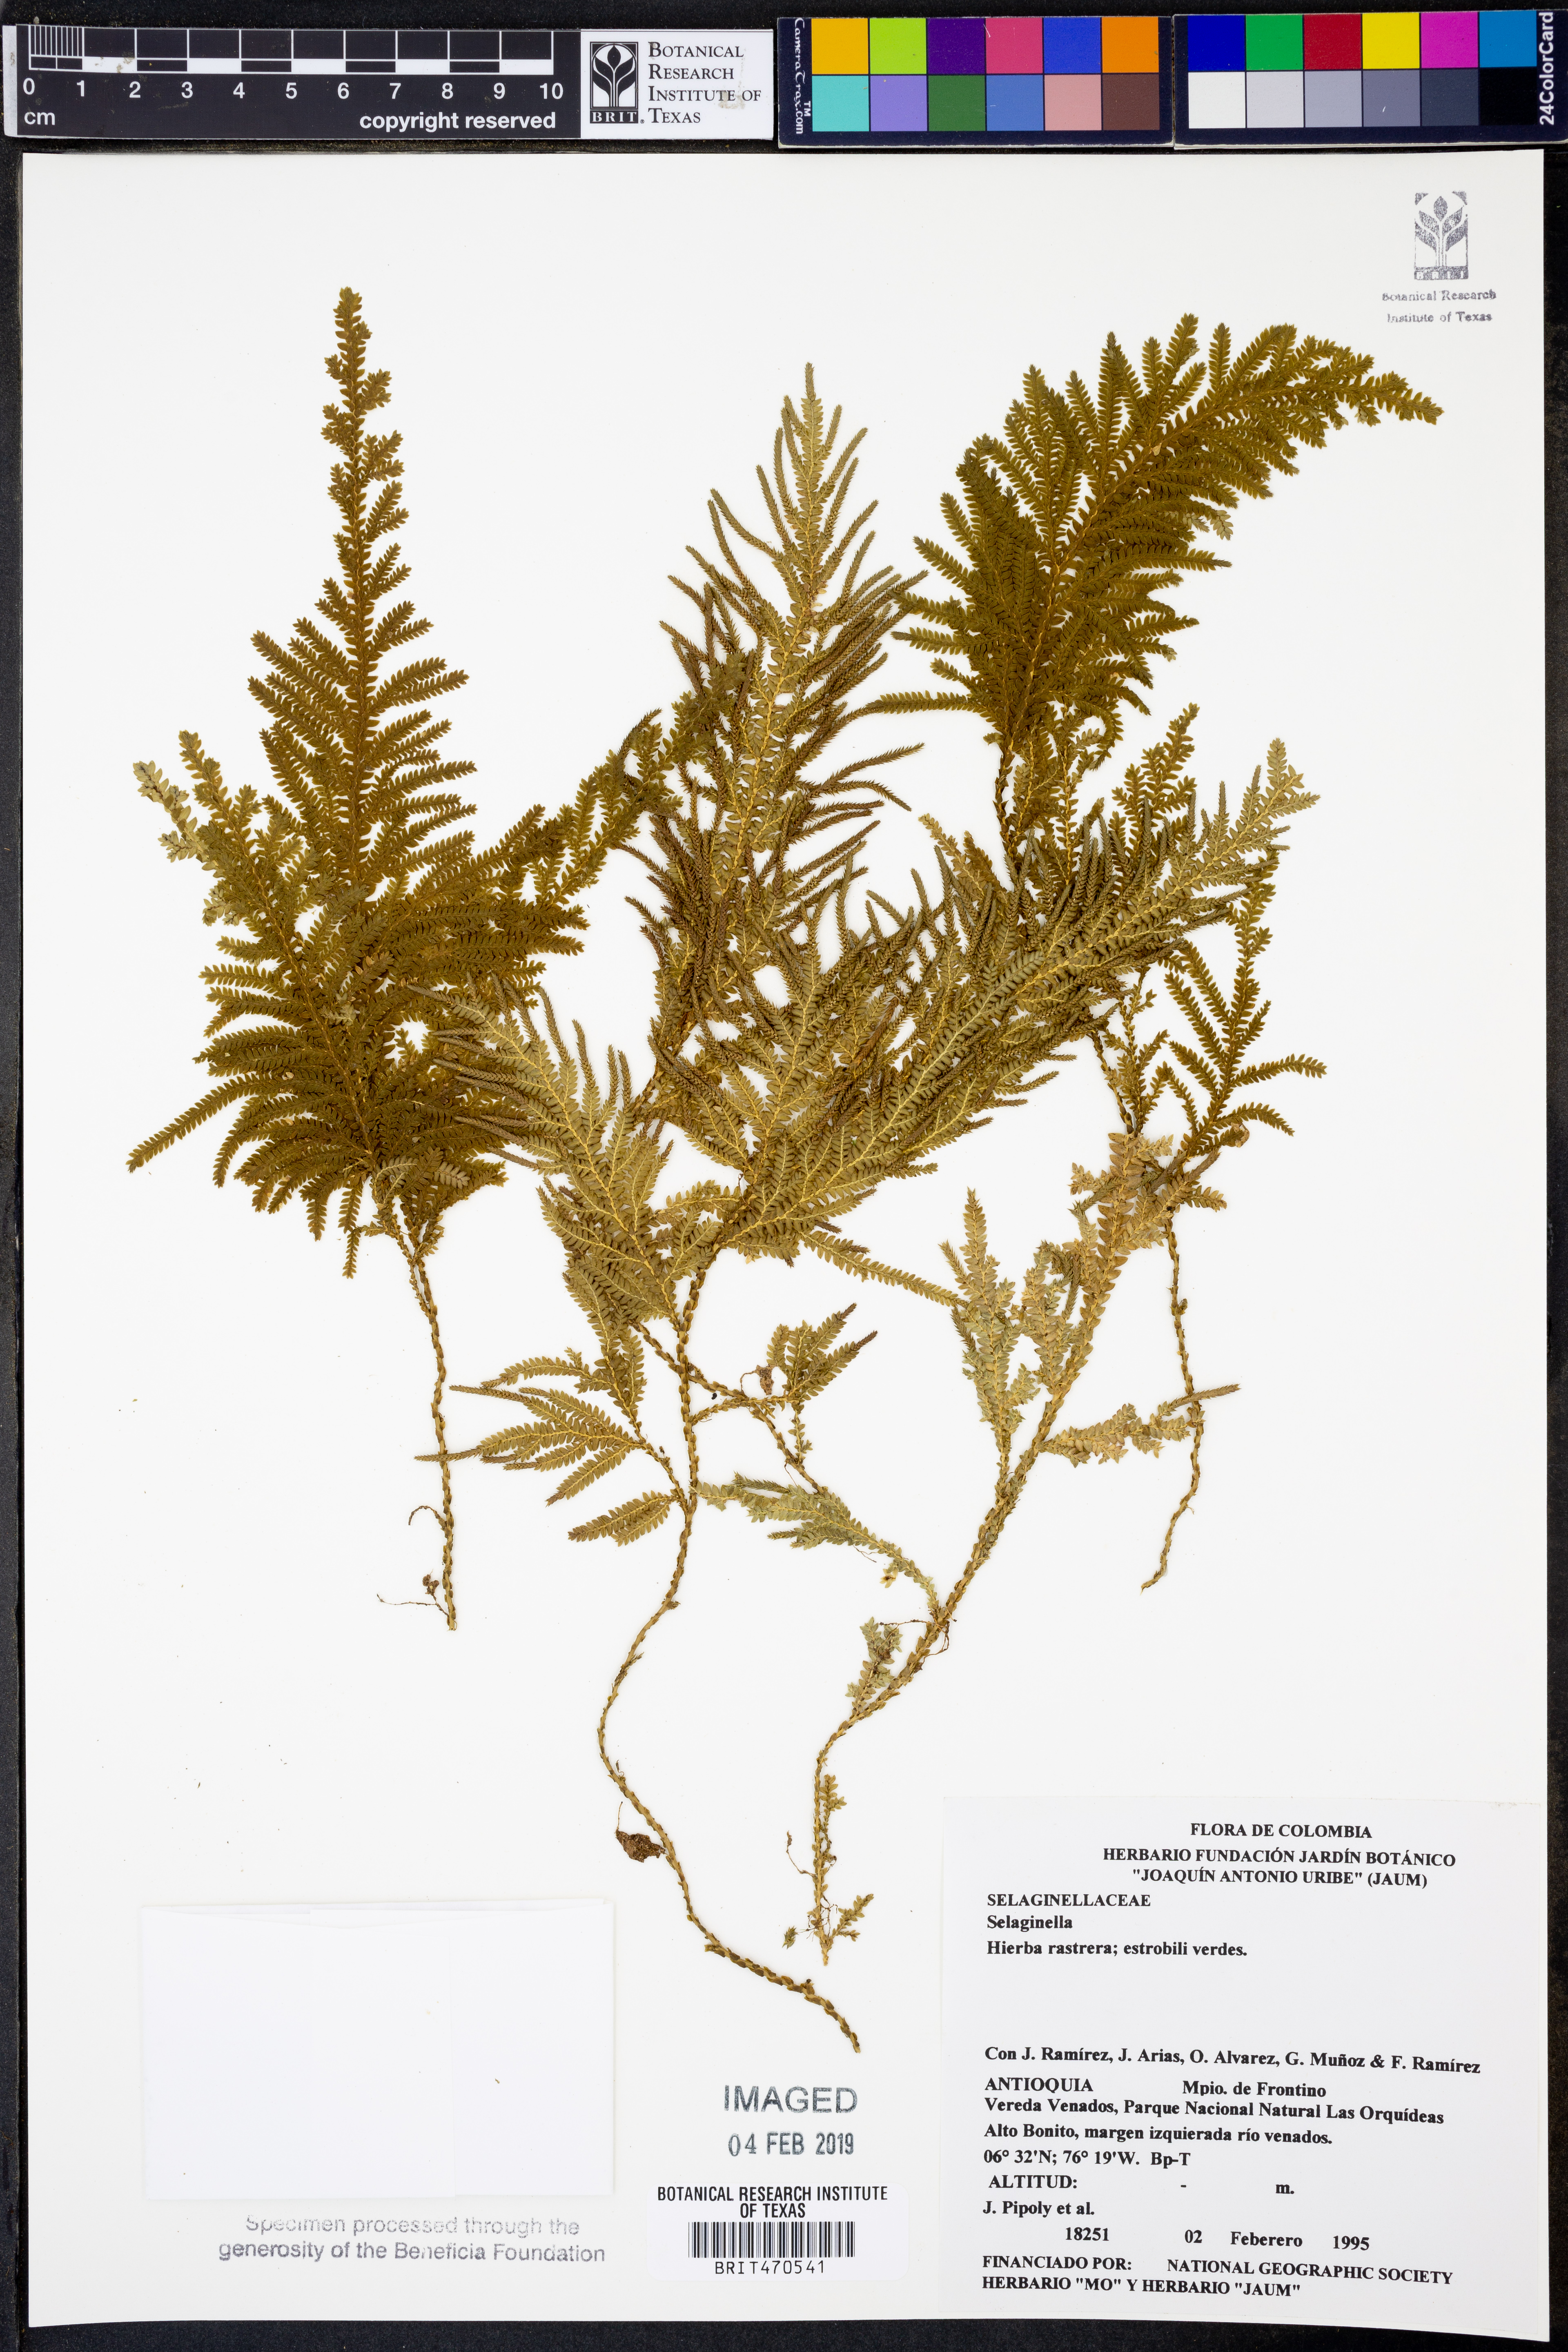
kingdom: Plantae
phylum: Tracheophyta
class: Lycopodiopsida
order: Selaginellales
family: Selaginellaceae
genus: Selaginella
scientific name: Selaginella
